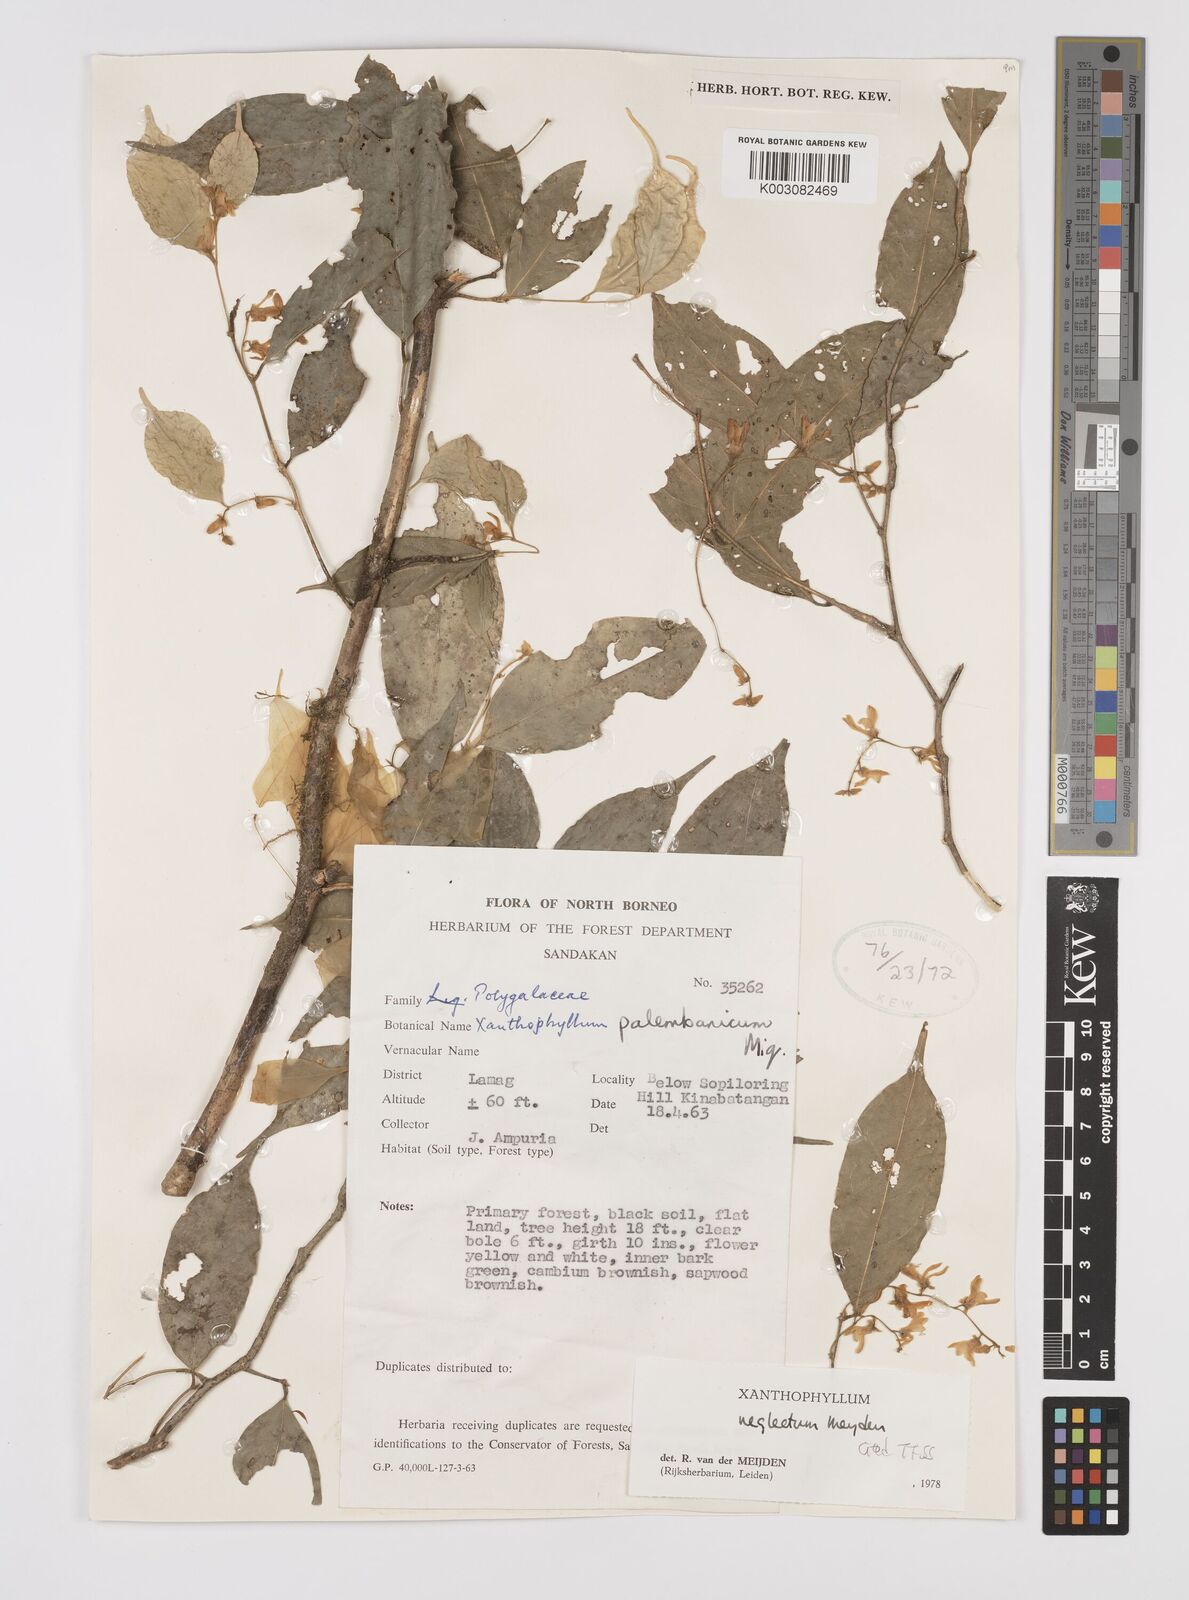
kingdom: Plantae
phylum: Tracheophyta
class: Magnoliopsida
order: Fabales
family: Polygalaceae
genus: Xanthophyllum
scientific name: Xanthophyllum neglectum
